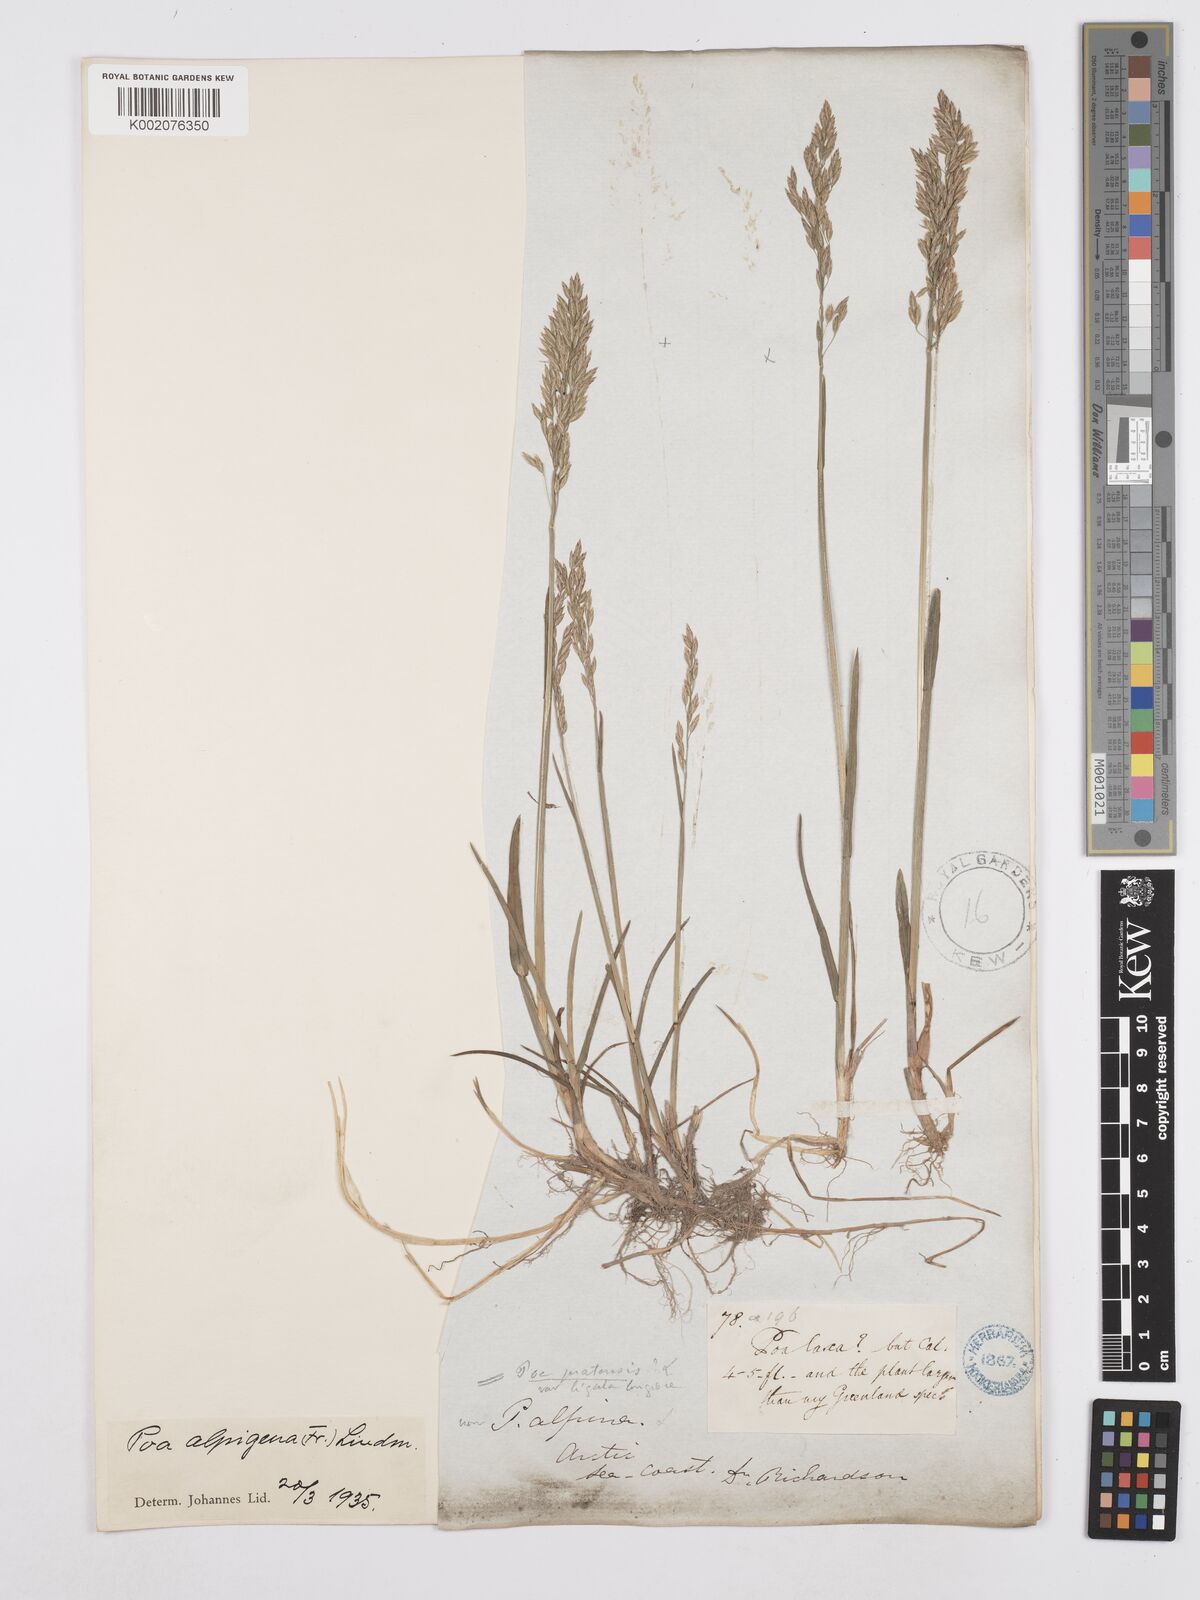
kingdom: Plantae
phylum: Tracheophyta
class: Liliopsida
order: Poales
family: Poaceae
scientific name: Poaceae
